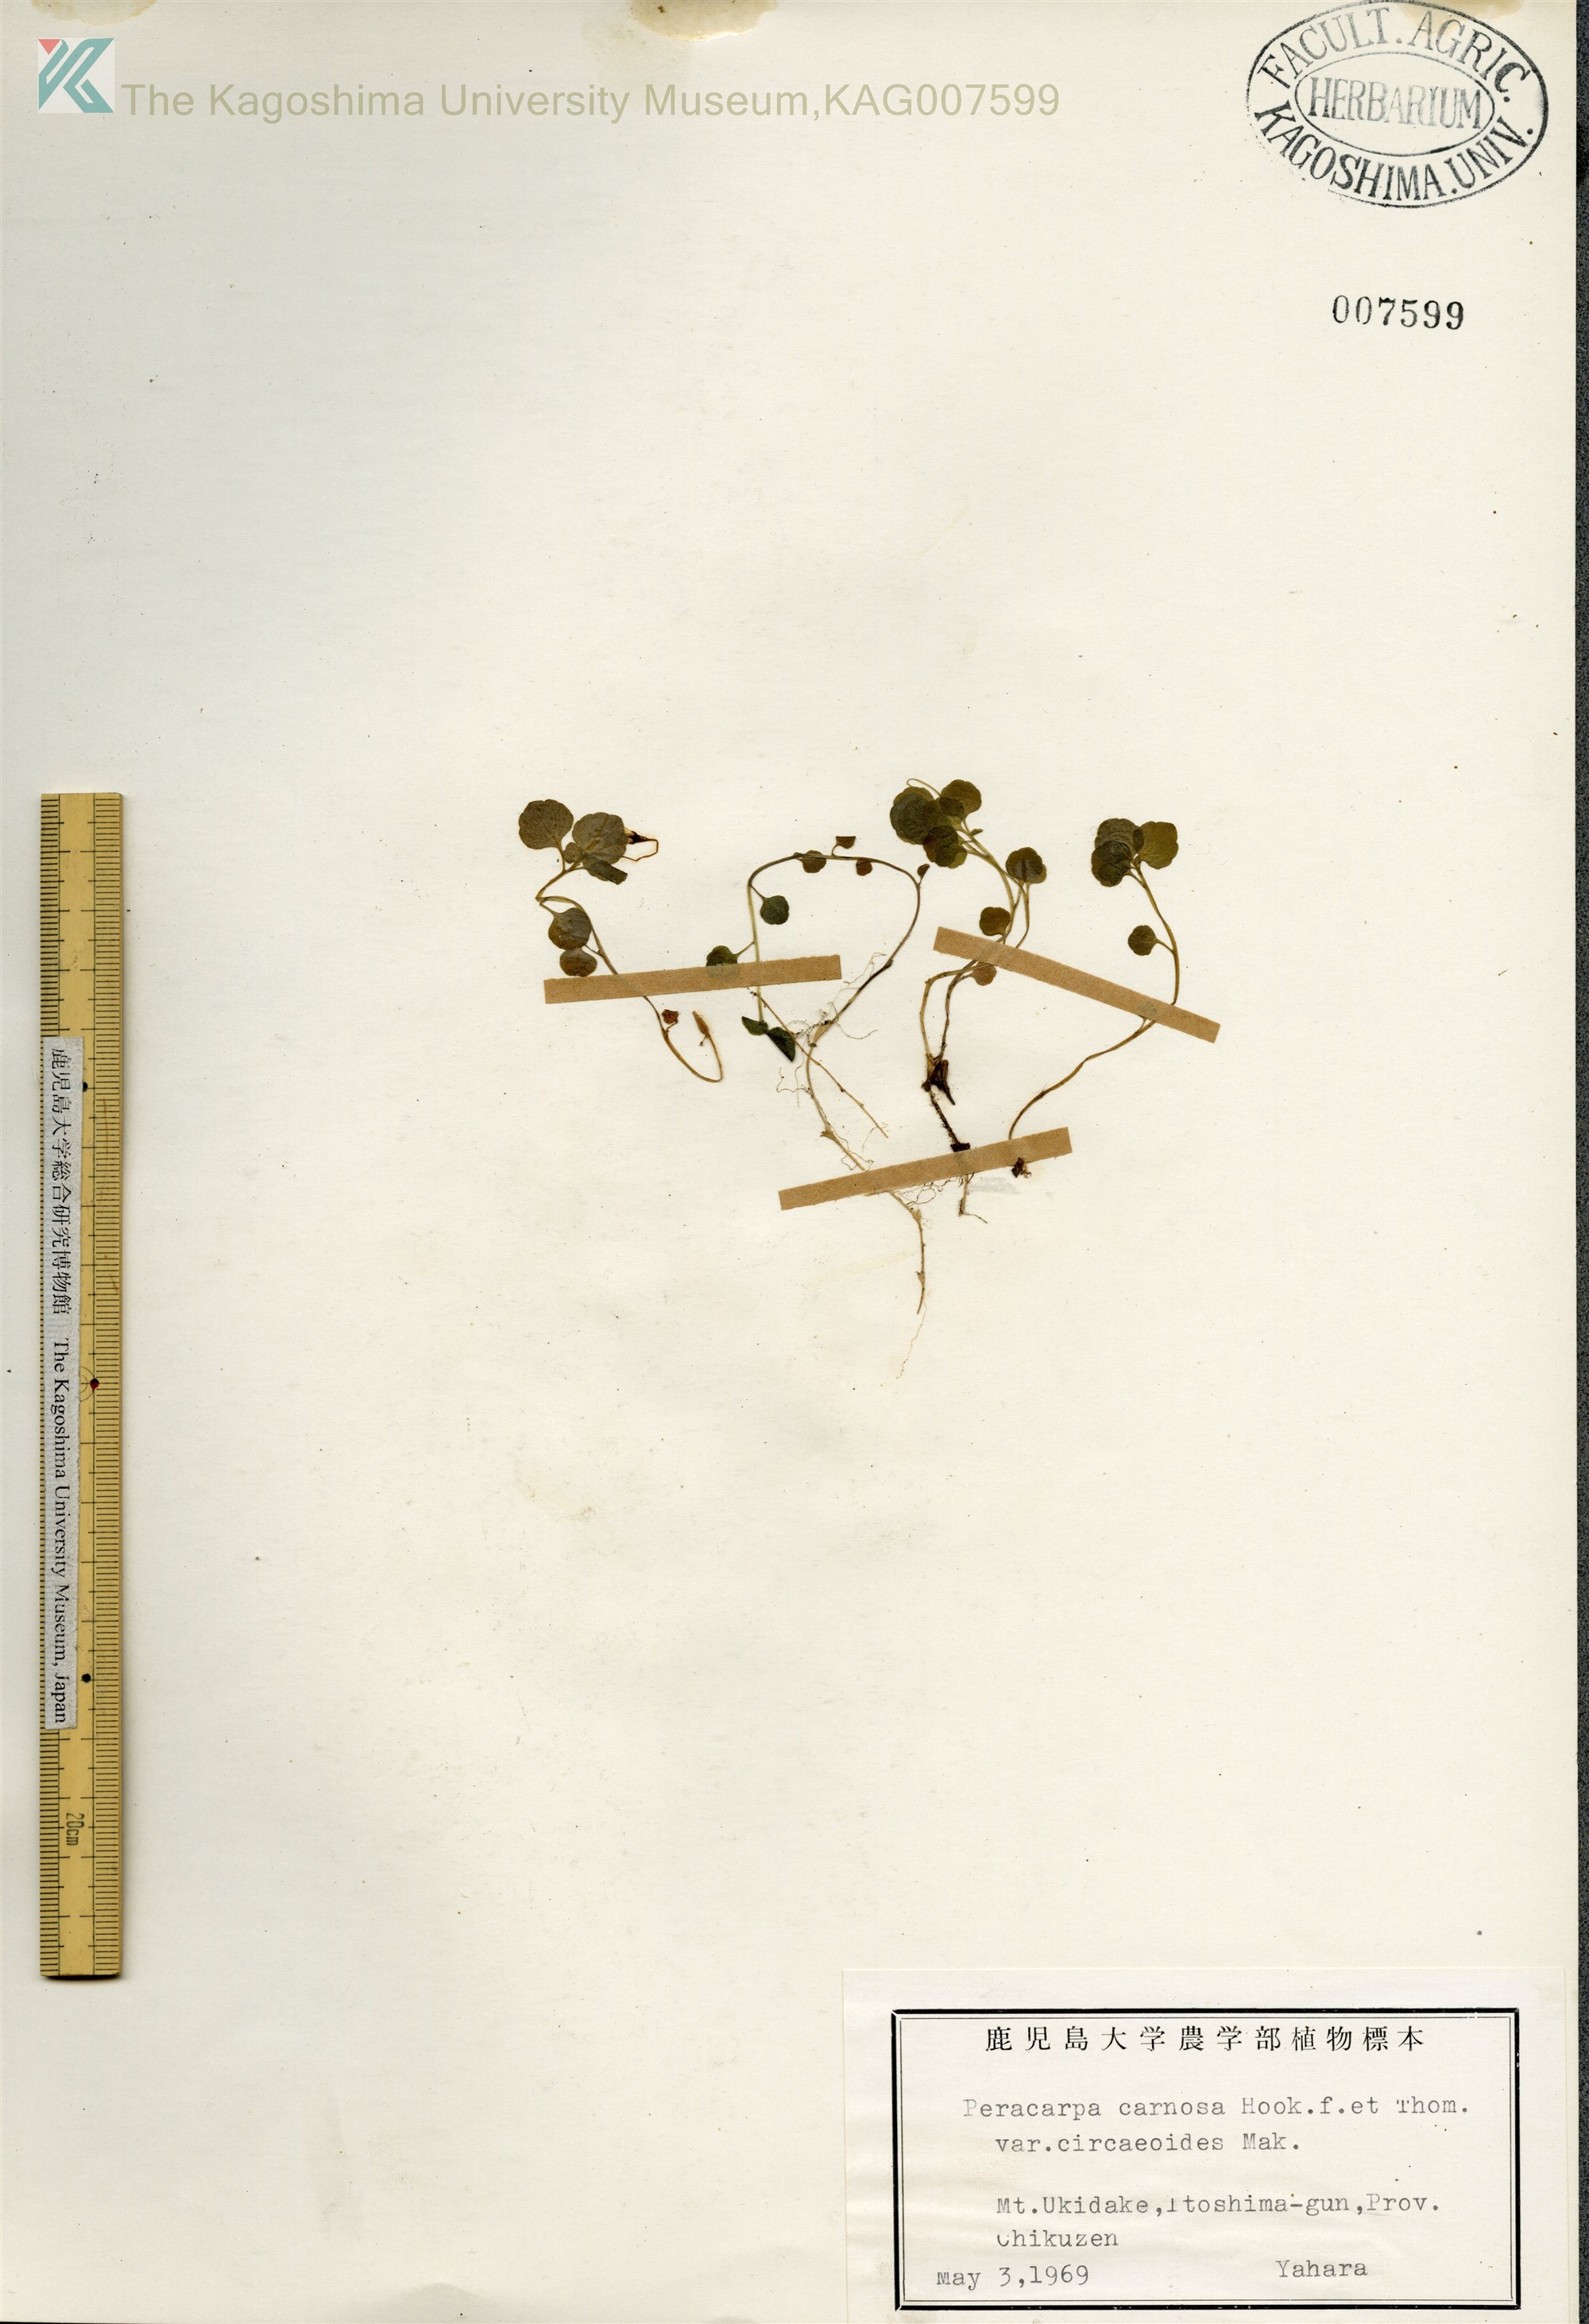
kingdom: Plantae
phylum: Tracheophyta
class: Magnoliopsida
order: Asterales
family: Campanulaceae
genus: Peracarpa
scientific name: Peracarpa carnosa
